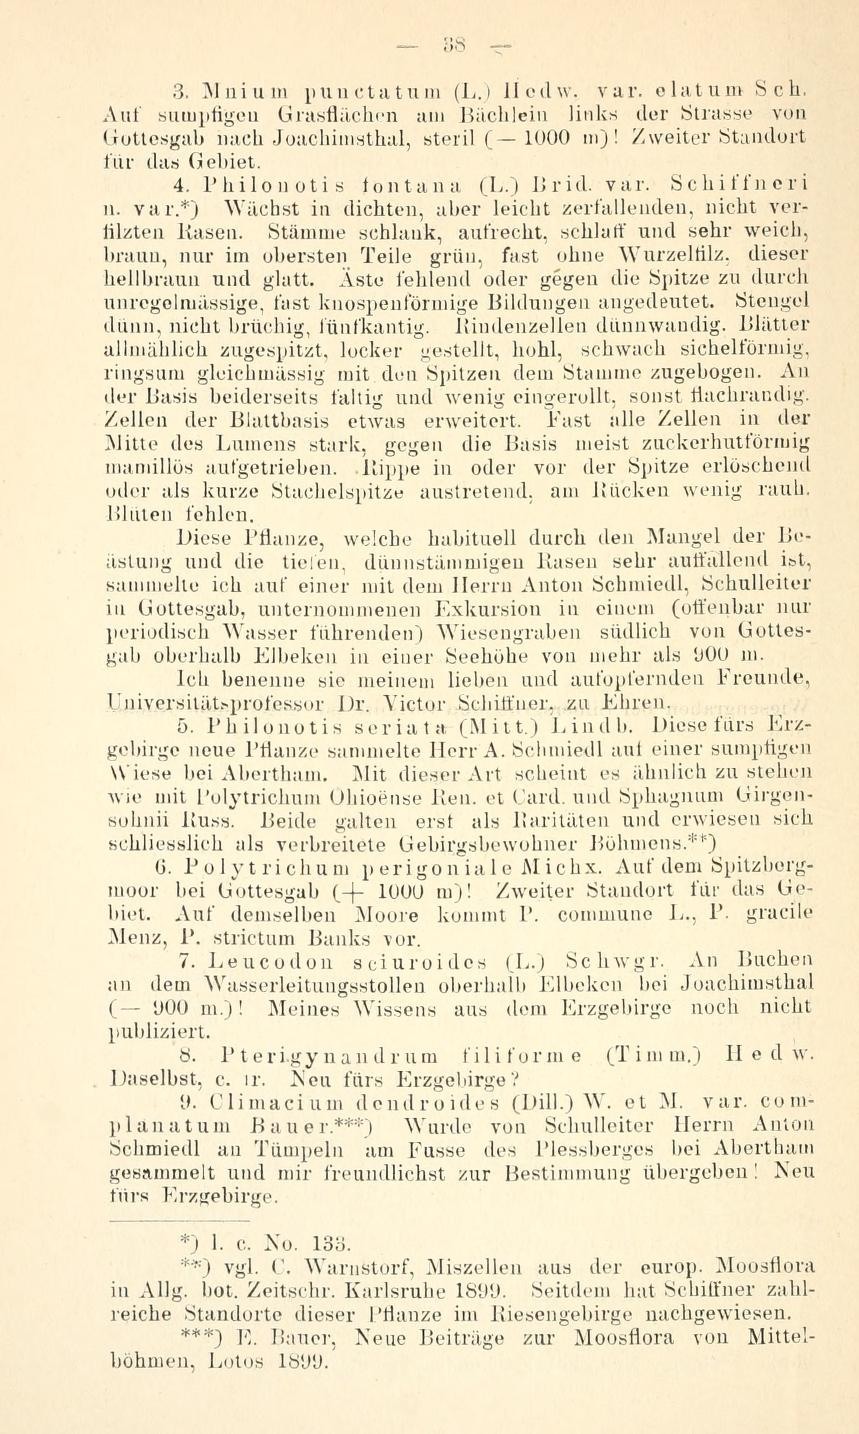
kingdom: Plantae
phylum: Bryophyta
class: Bryopsida
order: Bartramiales
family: Bartramiaceae
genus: Philonotis
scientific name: Philonotis fontana
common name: Fountain apple-moss
